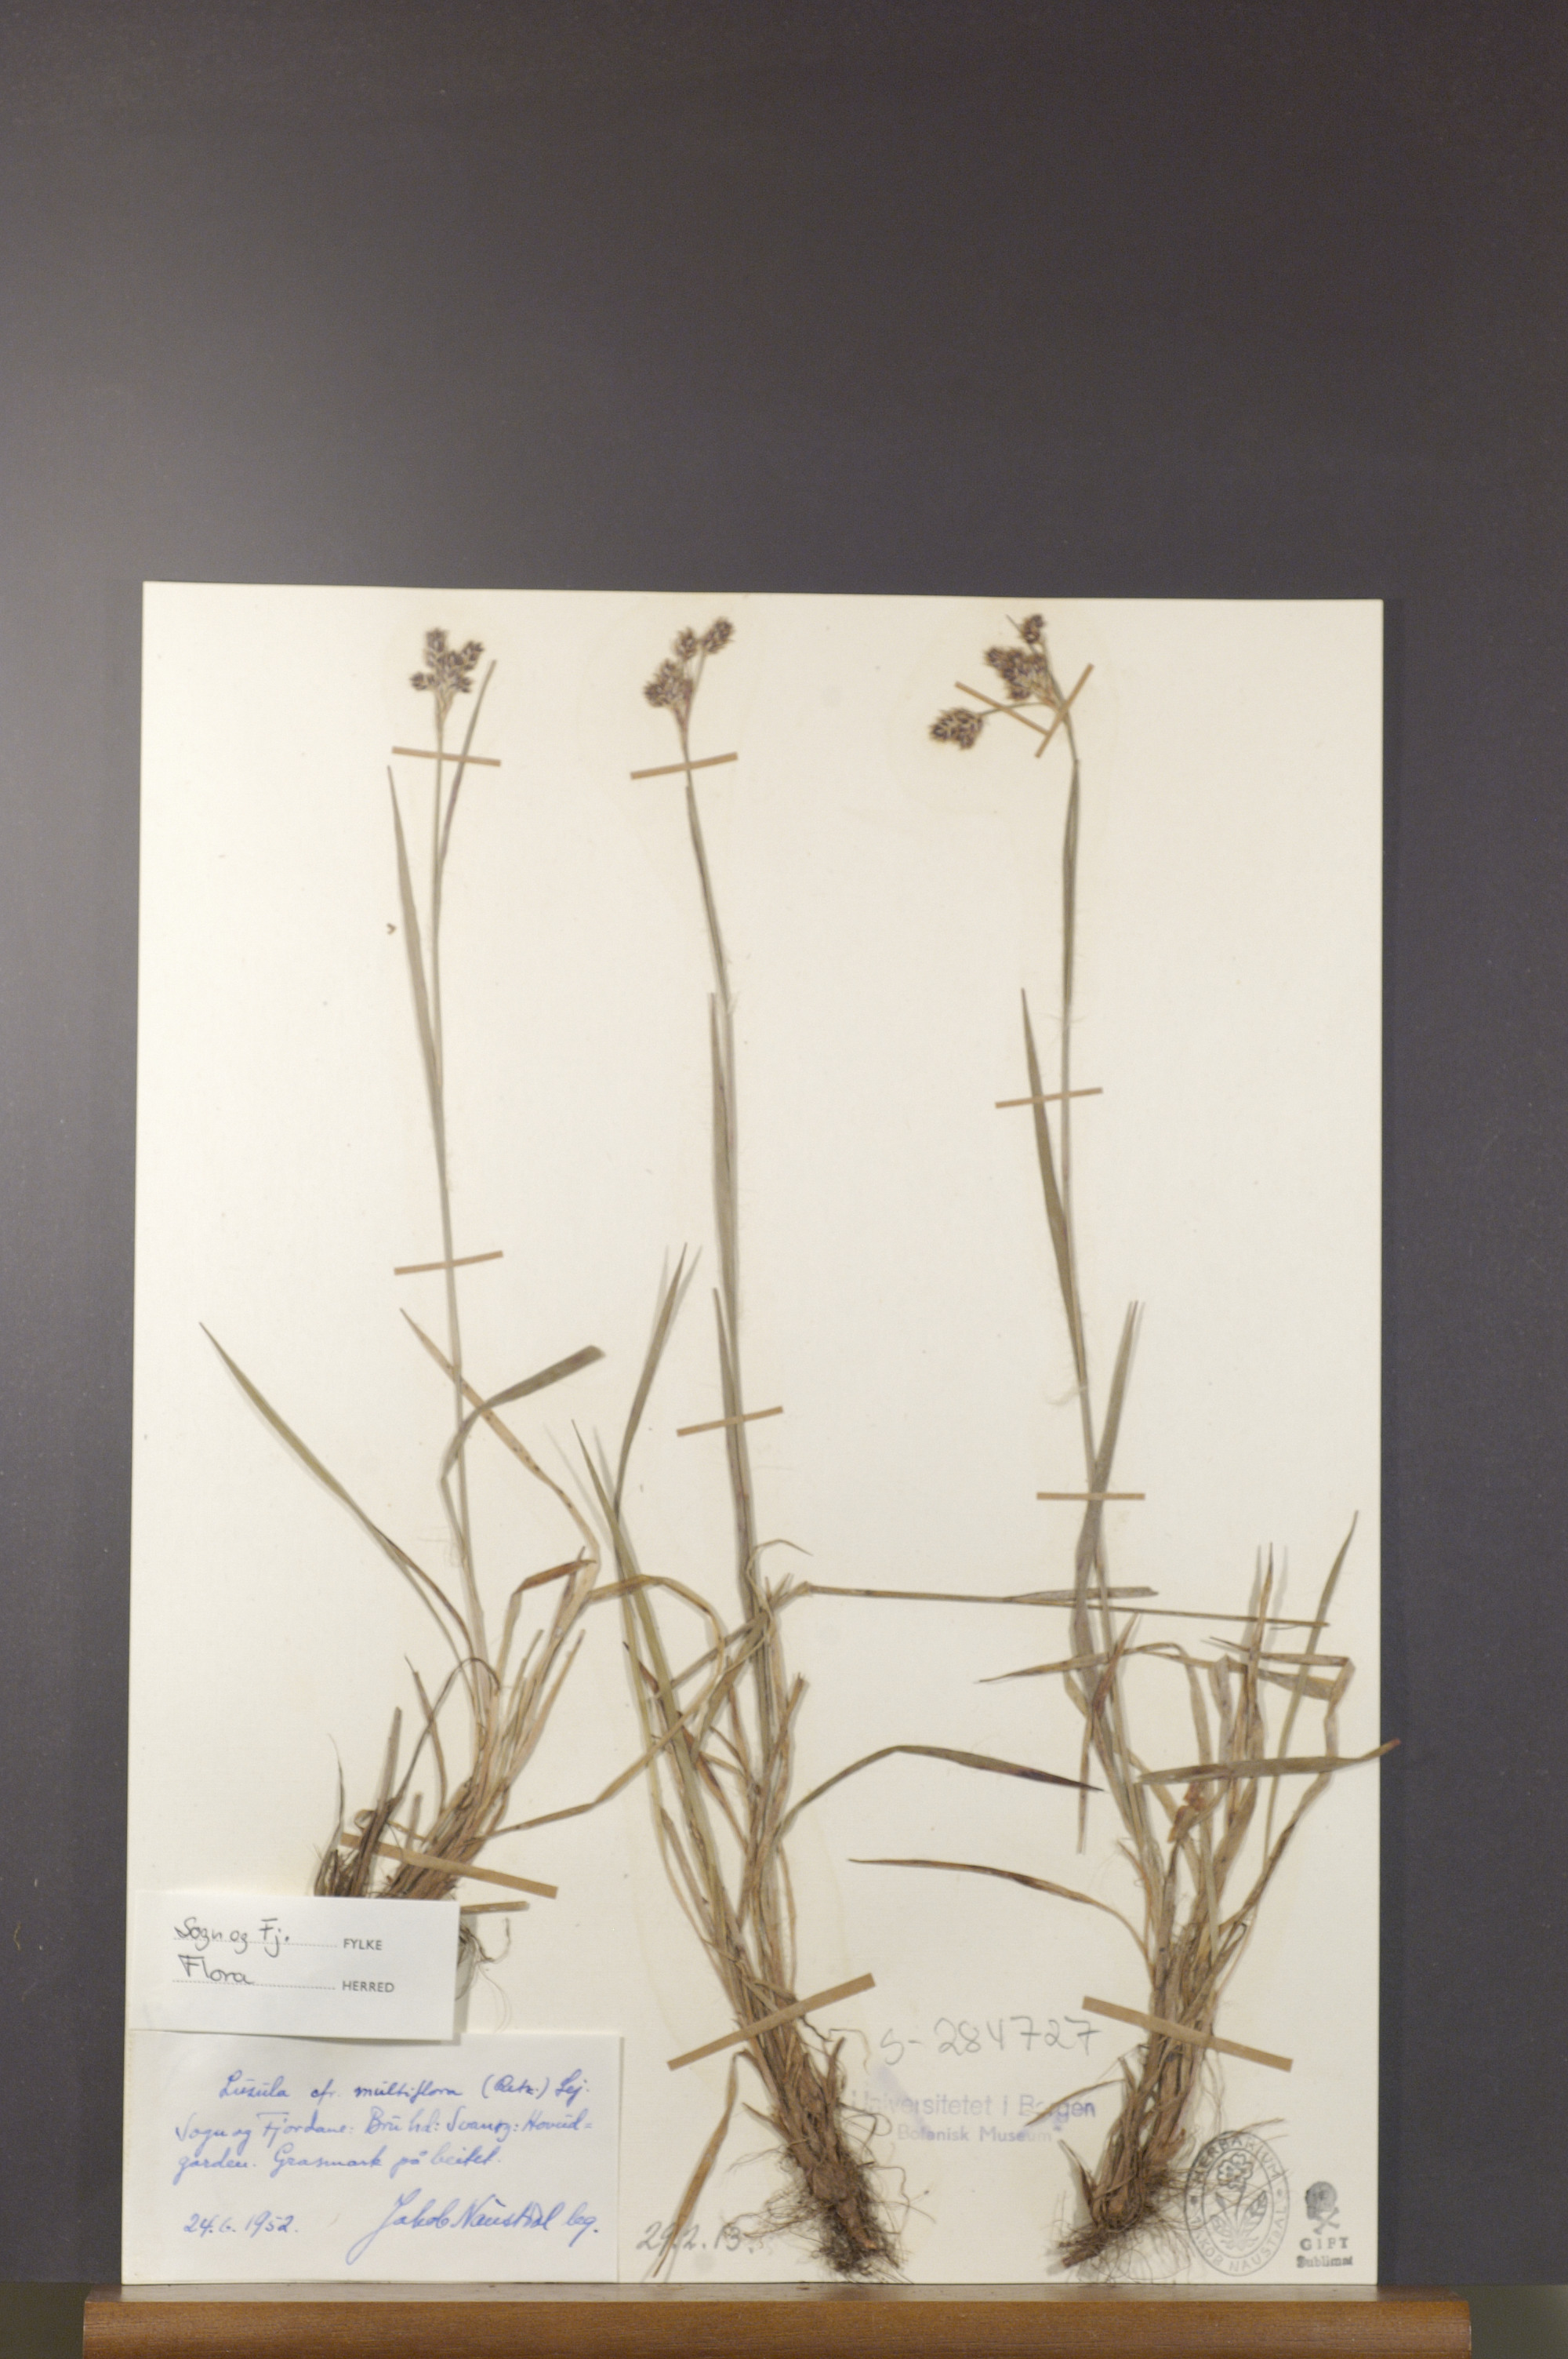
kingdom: Plantae
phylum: Tracheophyta
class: Liliopsida
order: Poales
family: Juncaceae
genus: Luzula
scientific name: Luzula multiflora
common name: Heath wood-rush
